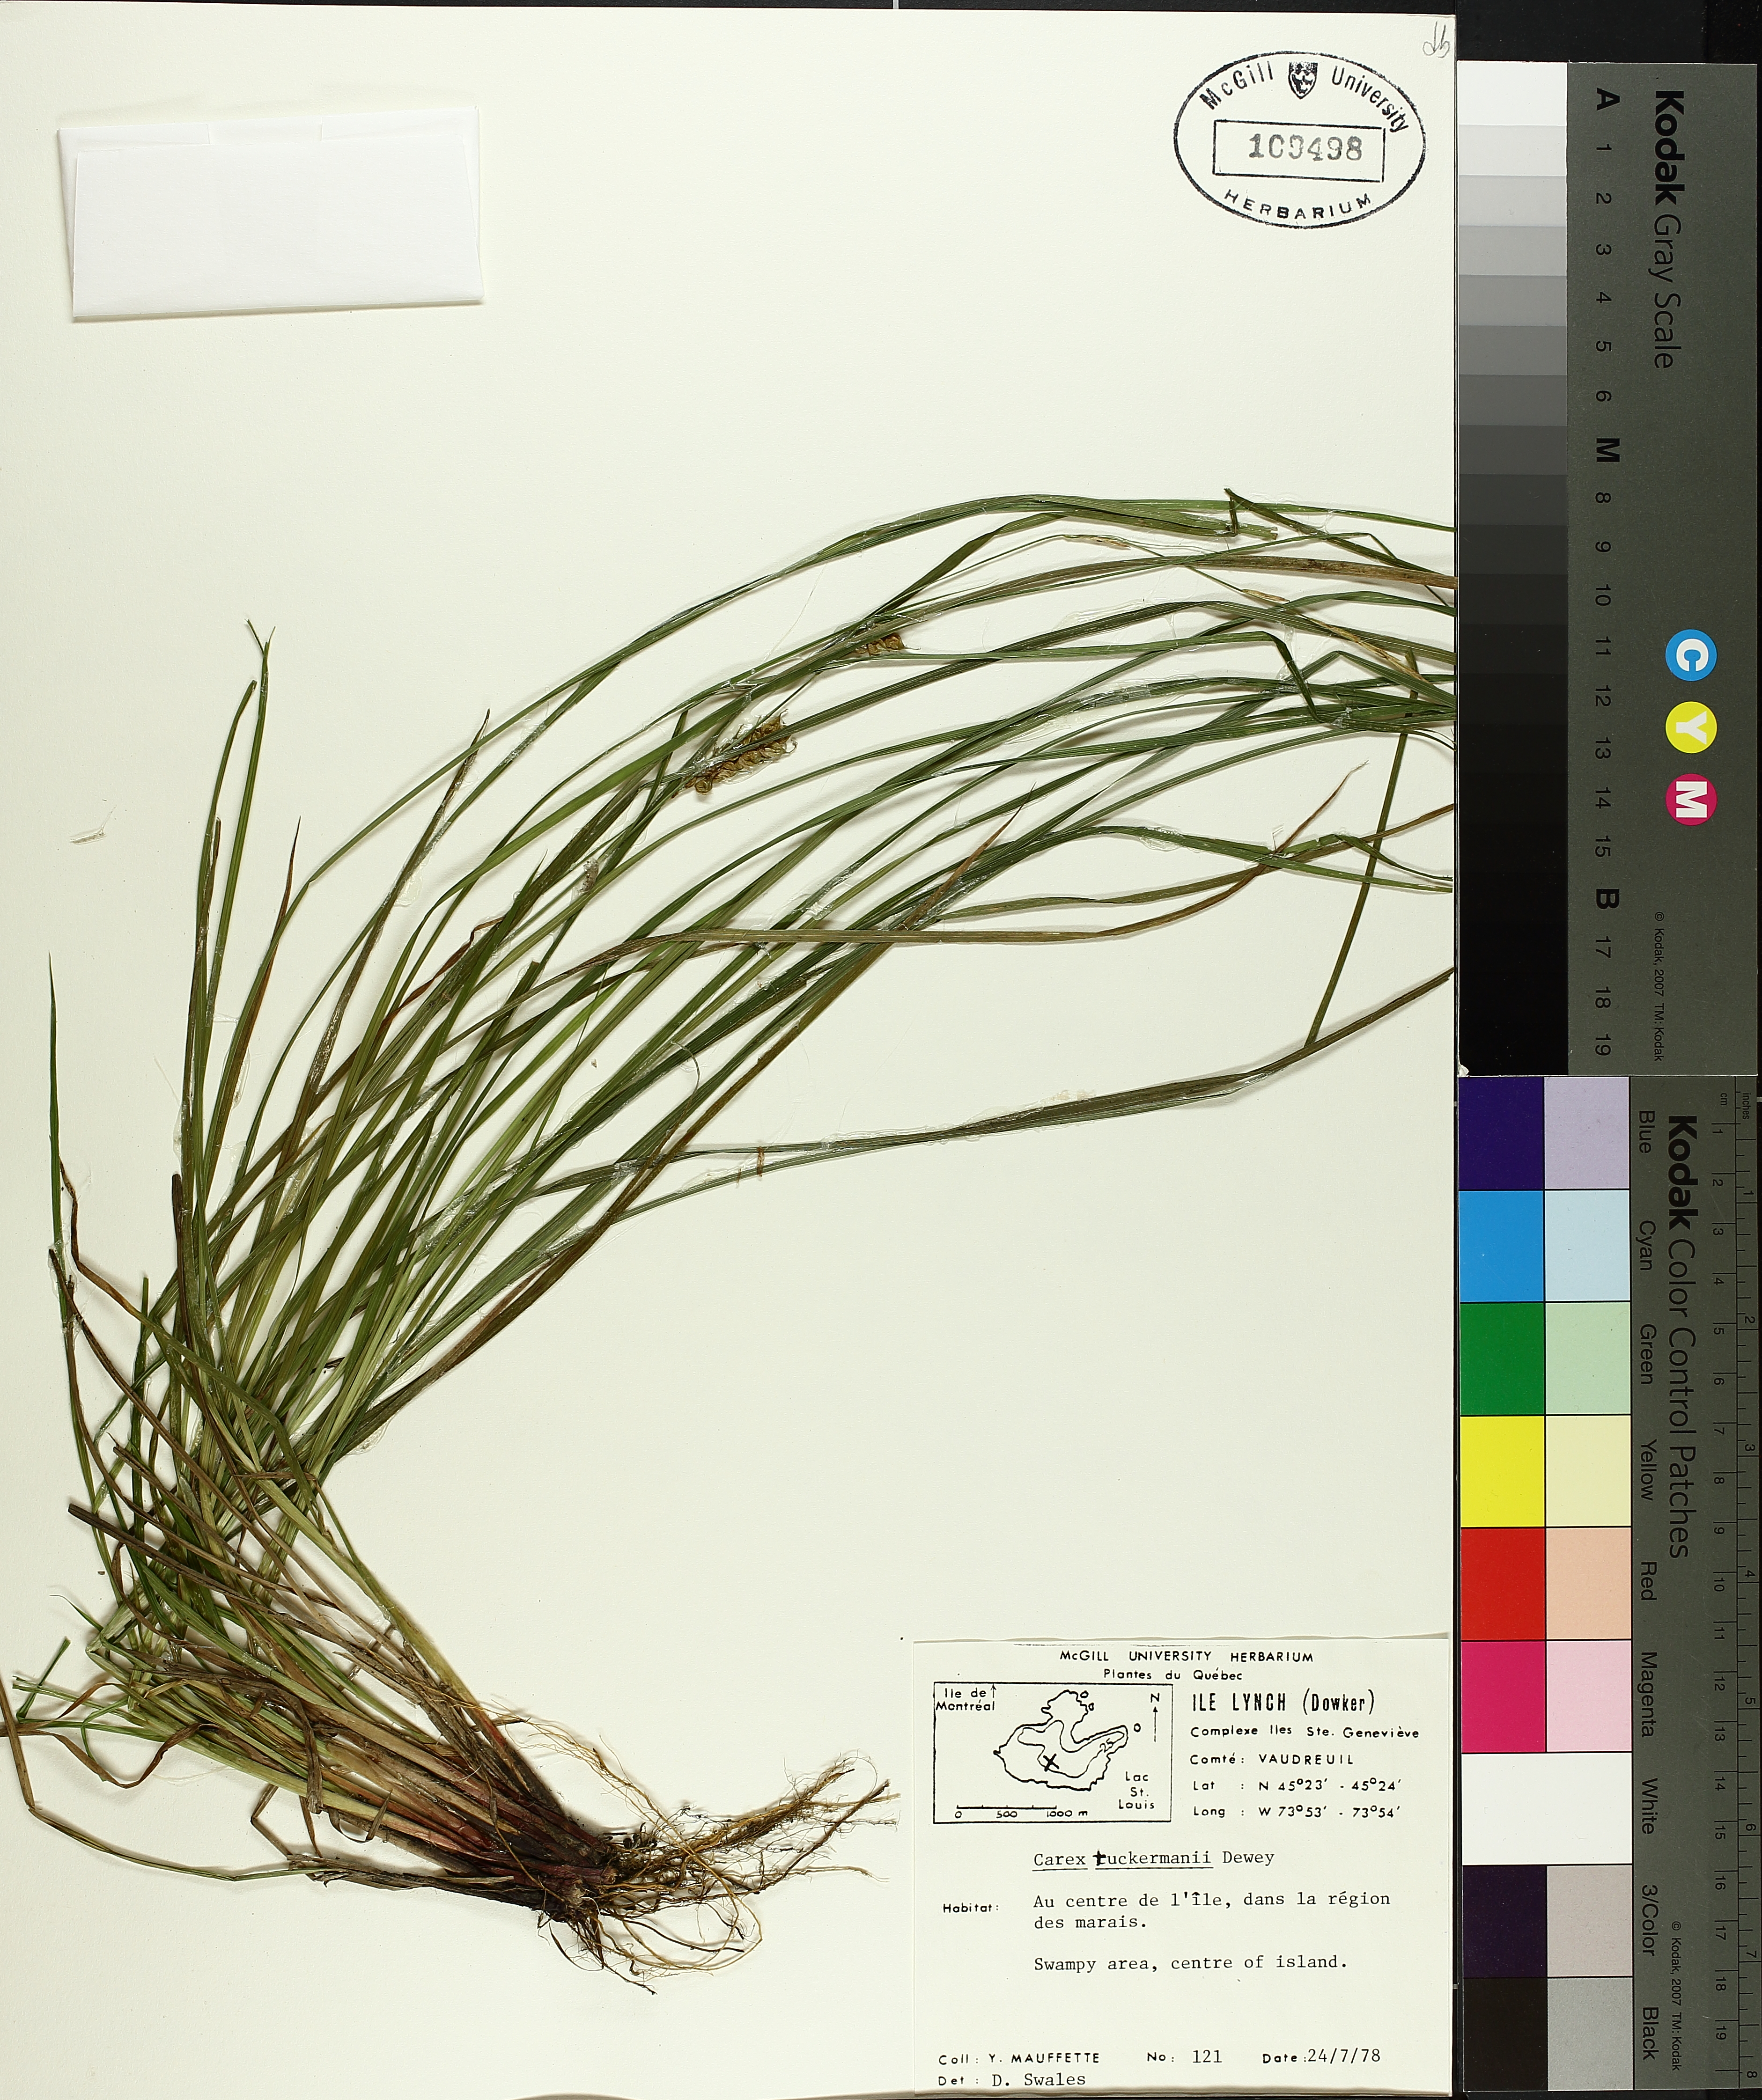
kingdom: Plantae
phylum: Tracheophyta
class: Liliopsida
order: Poales
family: Cyperaceae
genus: Carex
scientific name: Carex tuckermanii
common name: Tuckerman's sedge
